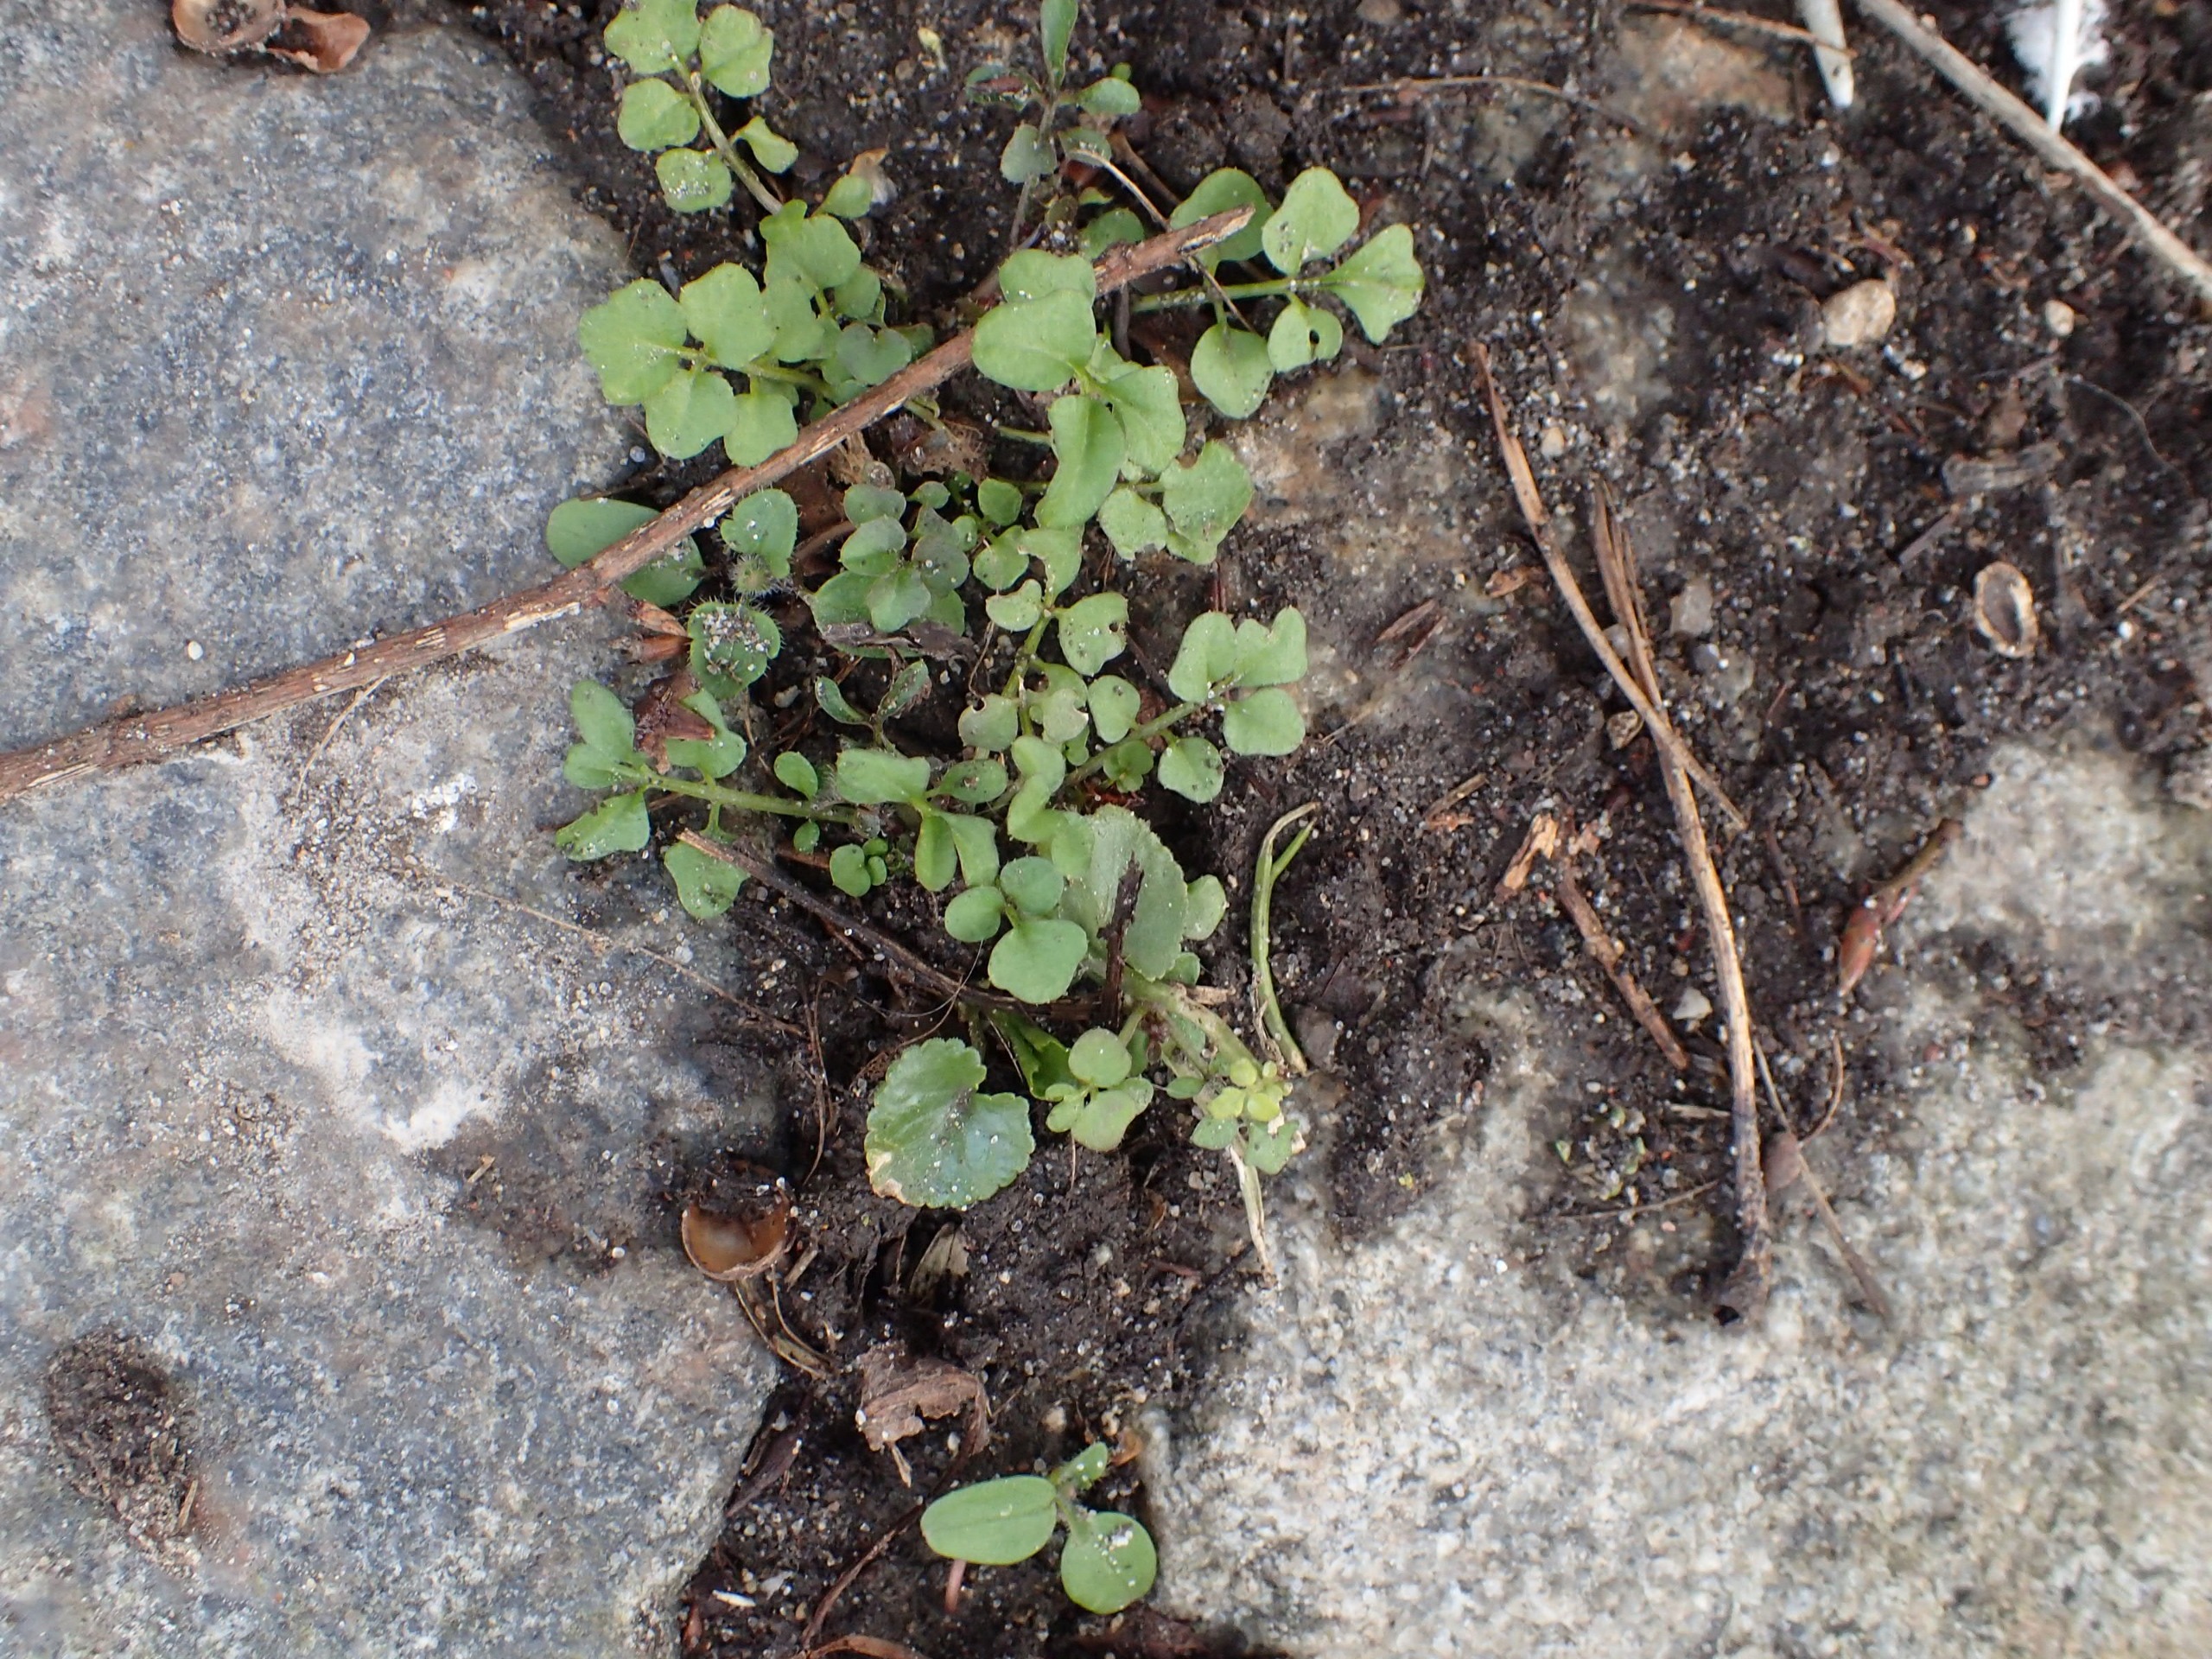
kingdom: Plantae
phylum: Tracheophyta
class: Magnoliopsida
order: Brassicales
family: Brassicaceae
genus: Cardamine
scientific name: Cardamine hirsuta
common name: Roset-springklap
